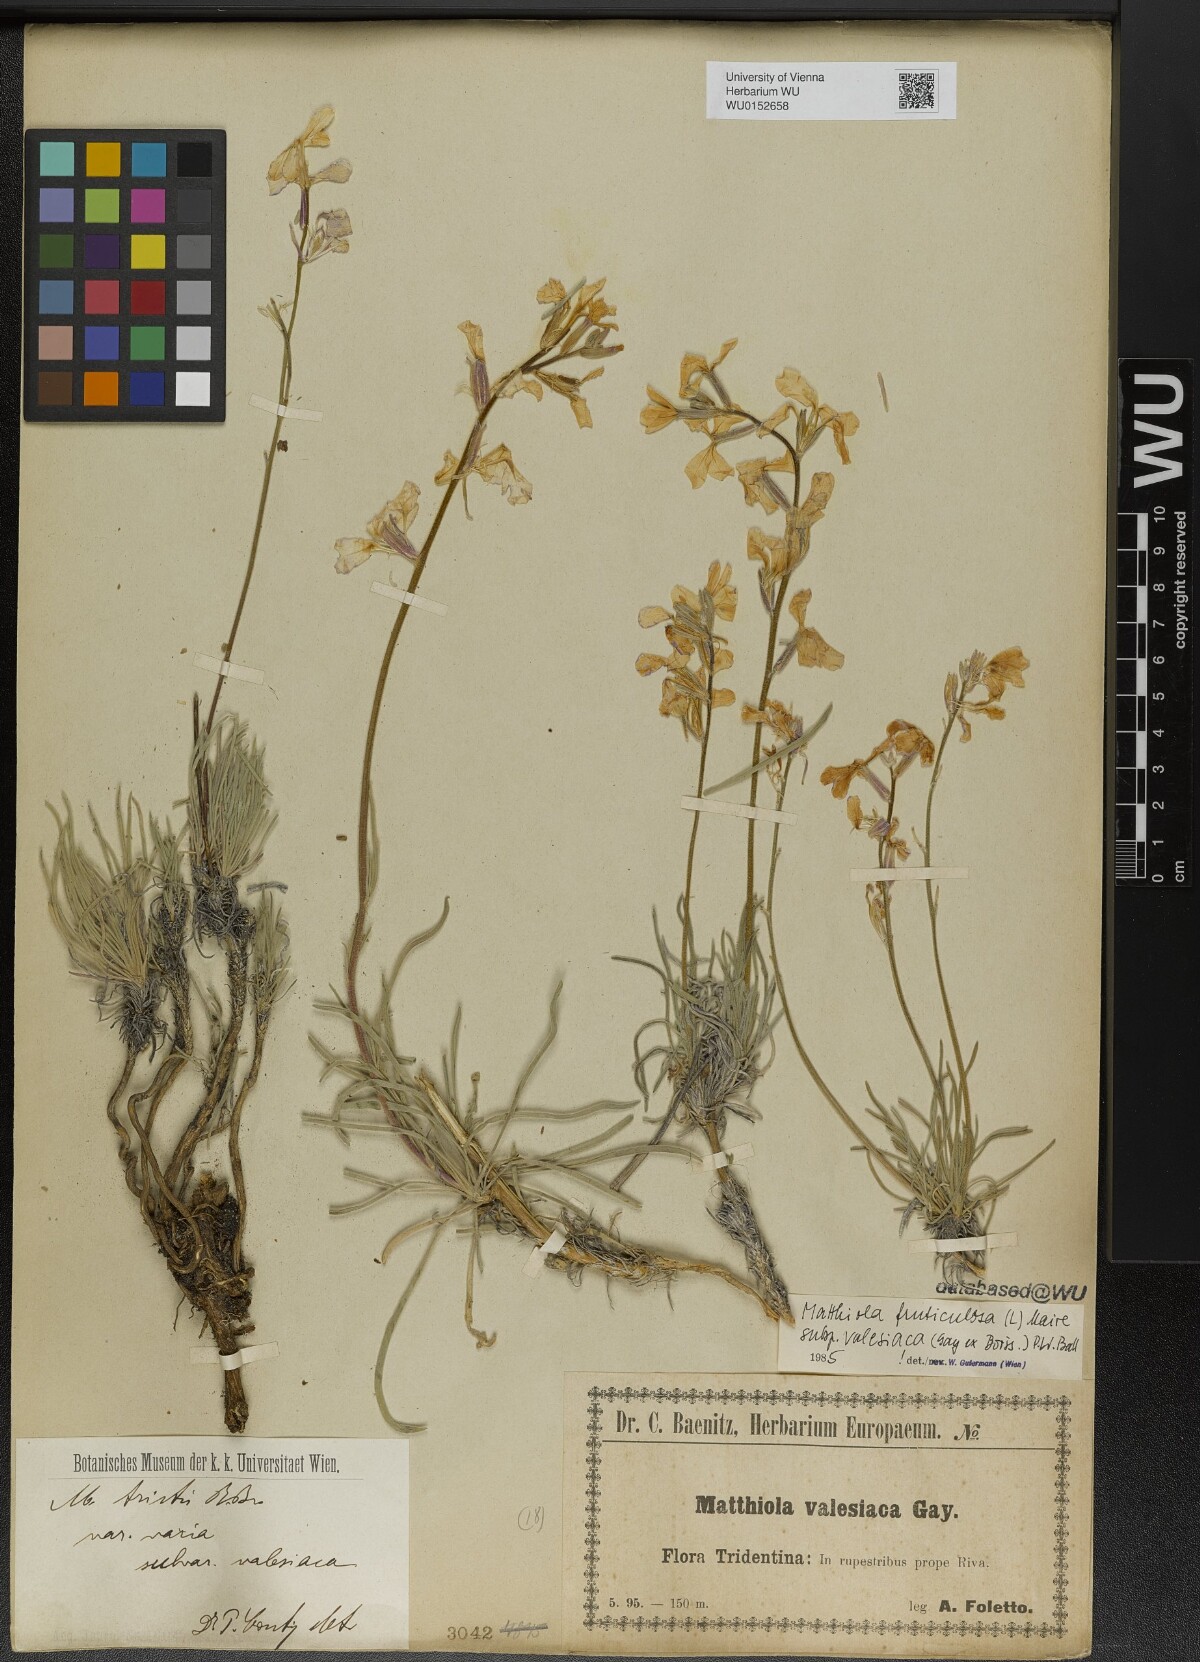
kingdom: Plantae
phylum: Tracheophyta
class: Magnoliopsida
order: Brassicales
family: Brassicaceae
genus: Matthiola
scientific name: Matthiola fruticulosa
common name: Sad stock
